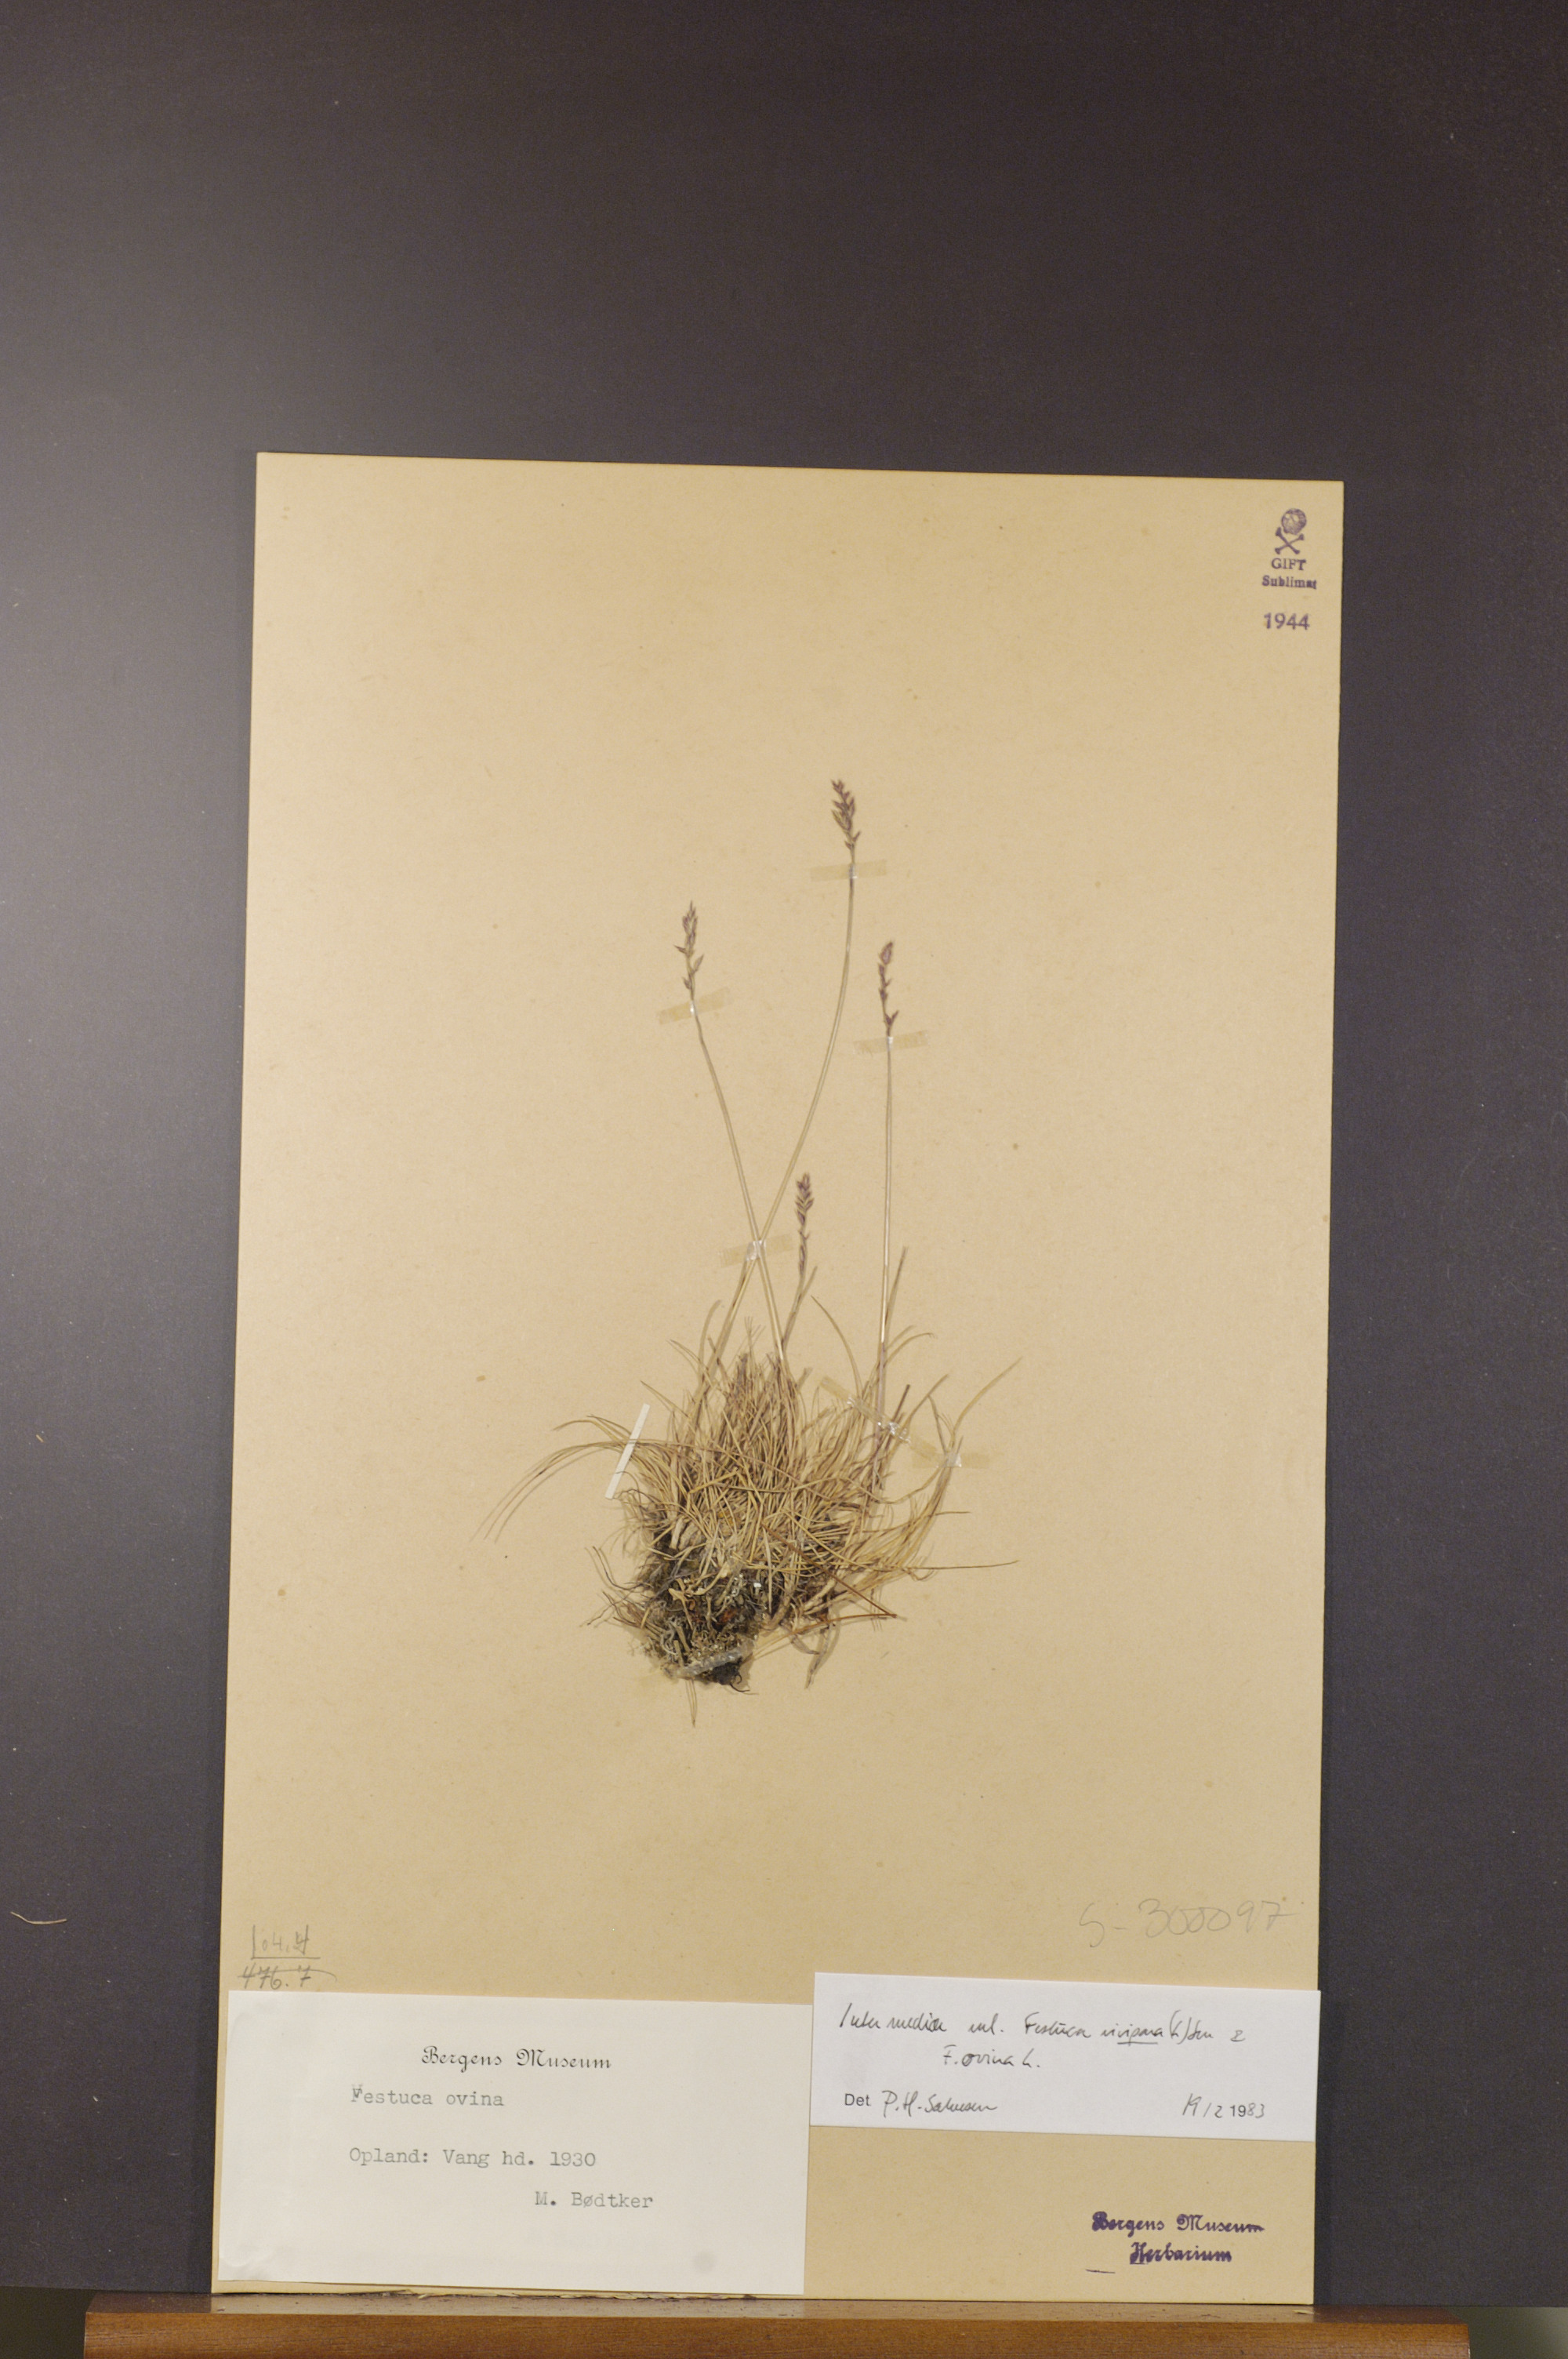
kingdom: Plantae
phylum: Tracheophyta
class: Liliopsida
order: Poales
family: Poaceae
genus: Festuca
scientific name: Festuca vivipara
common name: Viviparous sheep's-fescue
